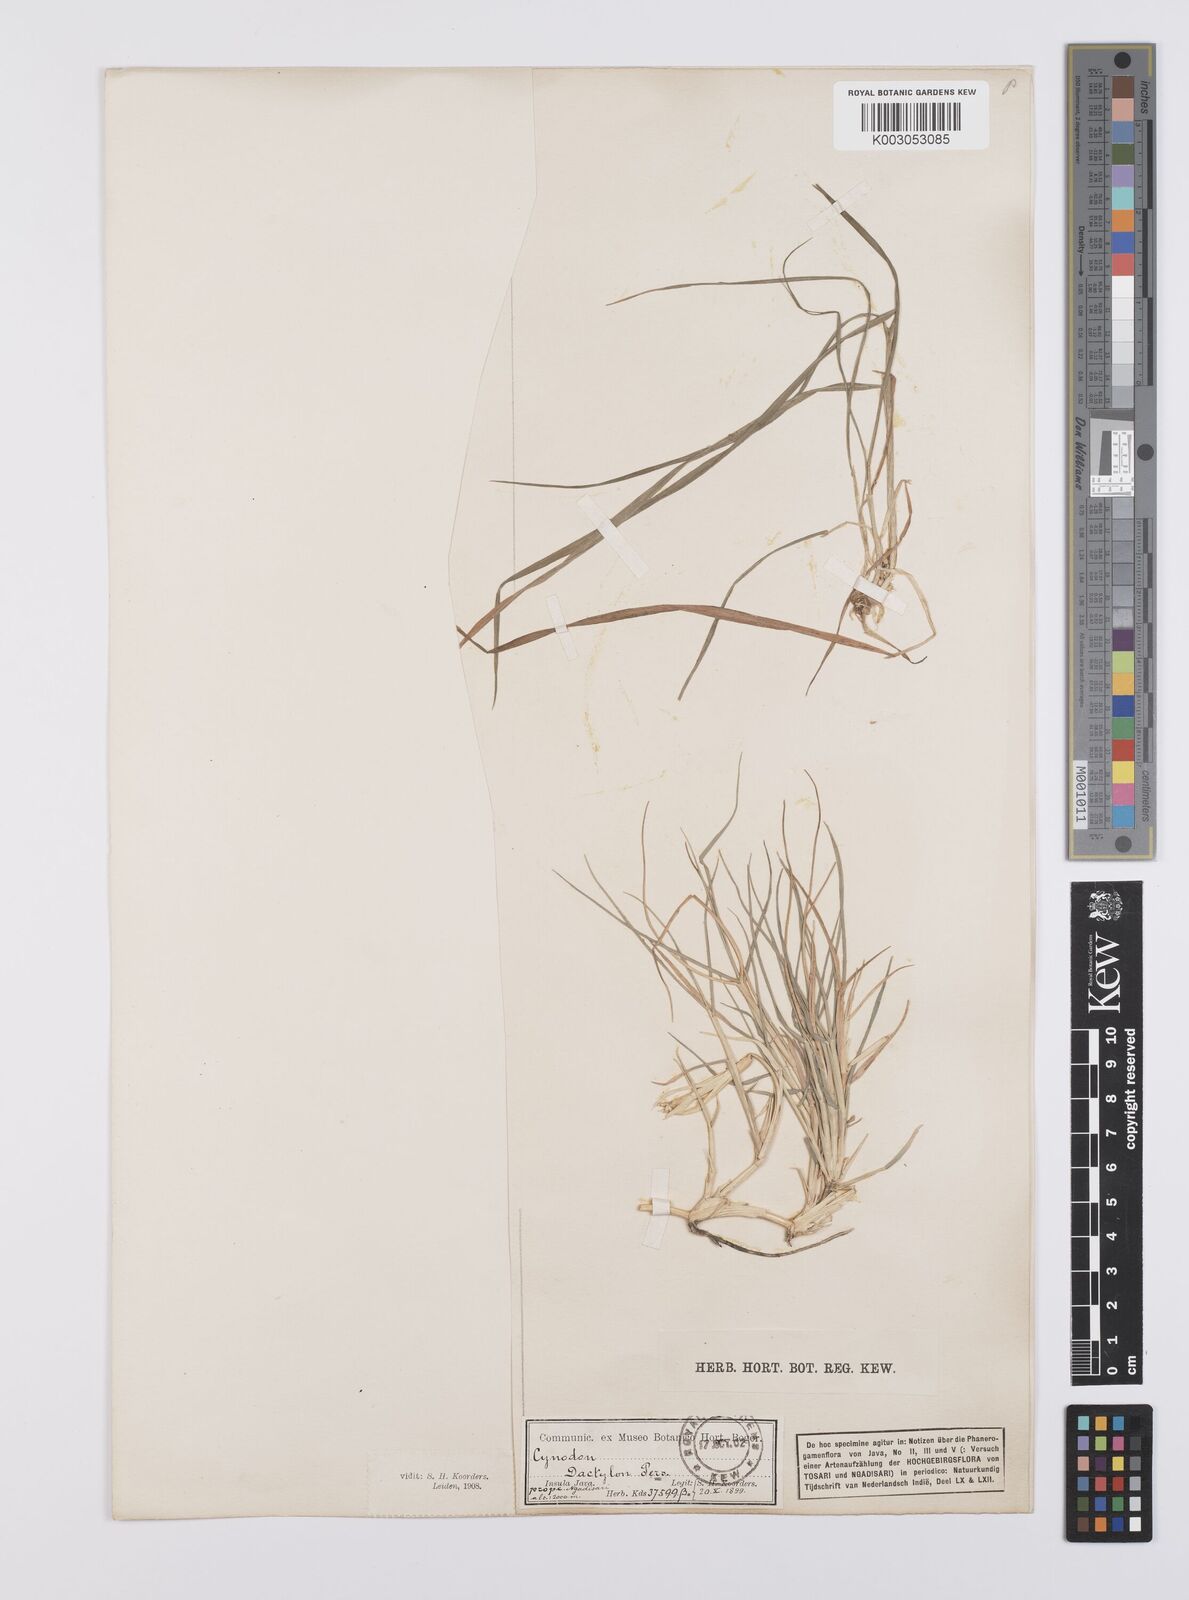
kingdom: Plantae
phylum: Tracheophyta
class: Liliopsida
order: Poales
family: Poaceae
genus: Cynodon
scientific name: Cynodon dactylon
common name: Bermuda grass
